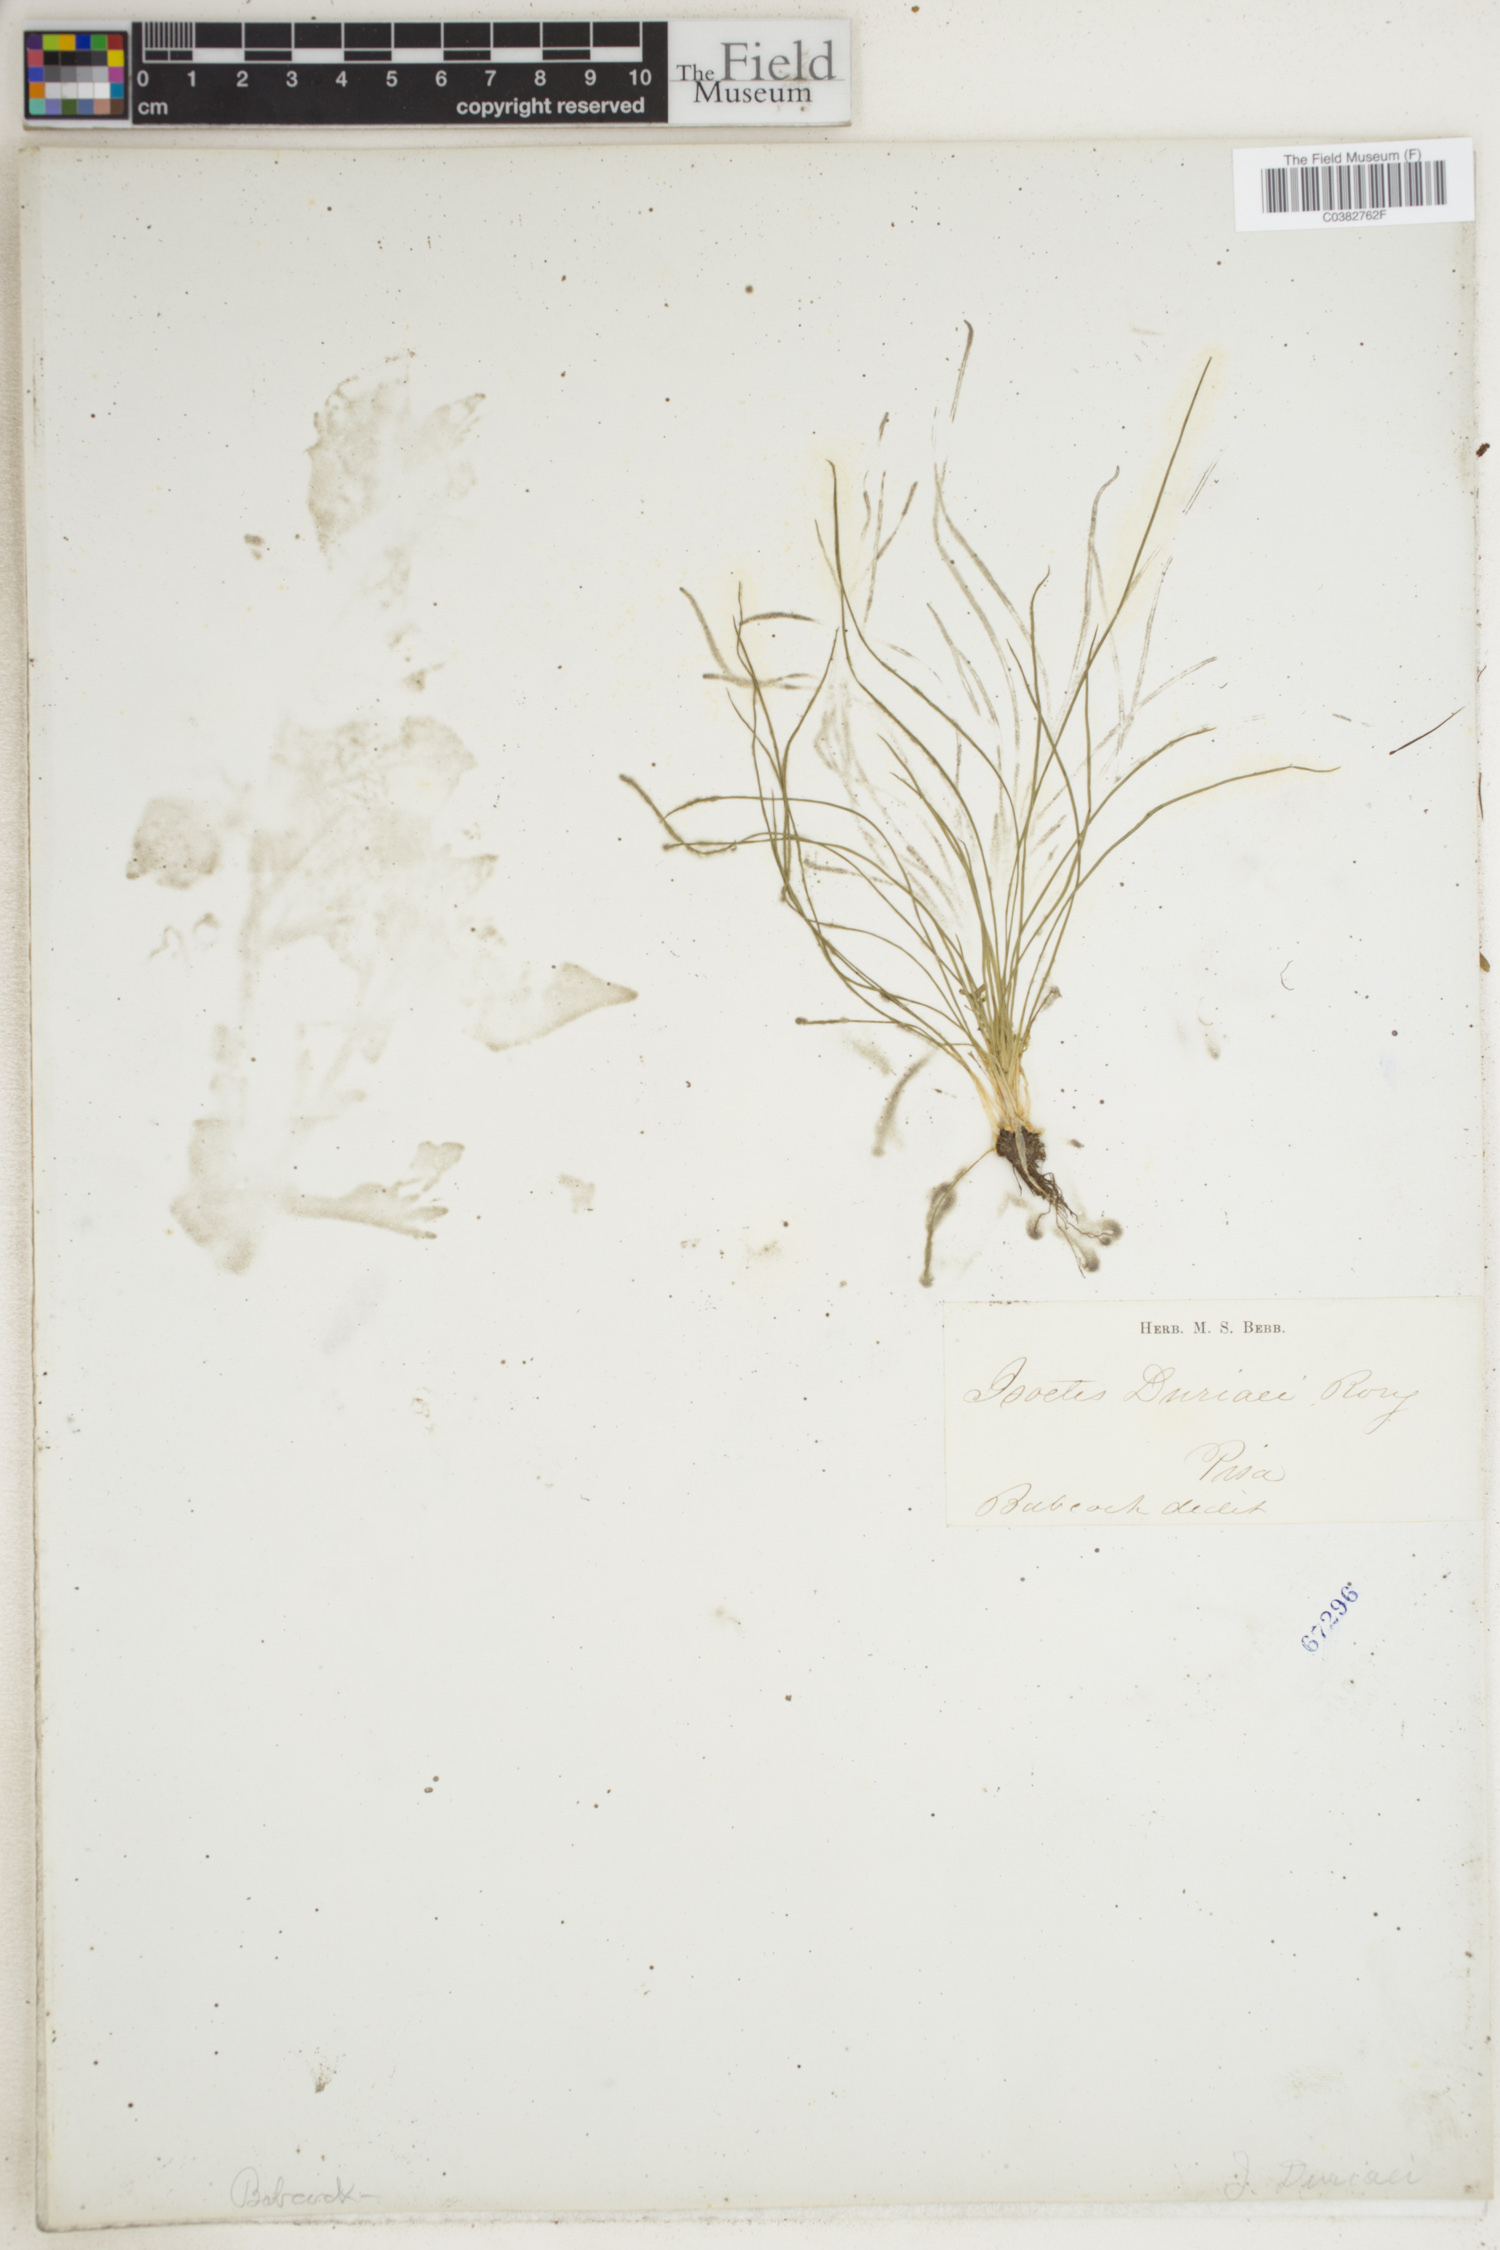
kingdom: Plantae
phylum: Tracheophyta
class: Lycopodiopsida
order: Isoetales
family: Isoetaceae
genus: Isoetes
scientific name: Isoetes duriei
